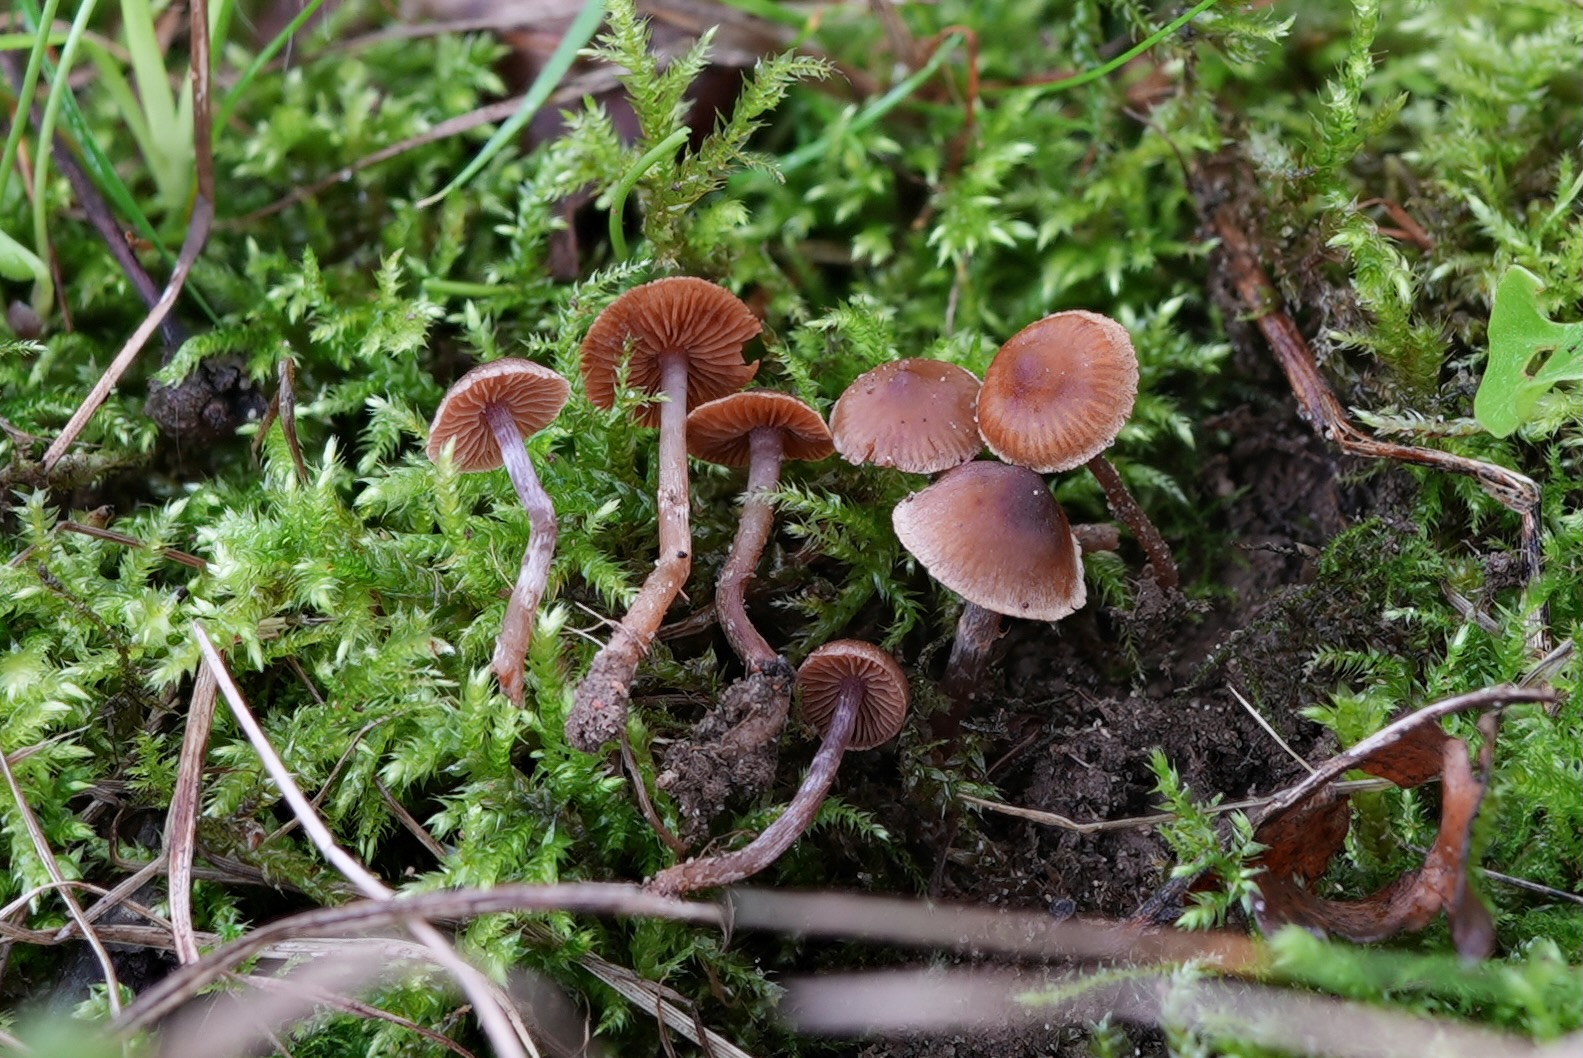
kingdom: Fungi
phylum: Basidiomycota
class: Agaricomycetes
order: Agaricales
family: Cortinariaceae
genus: Cortinarius
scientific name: Cortinarius
